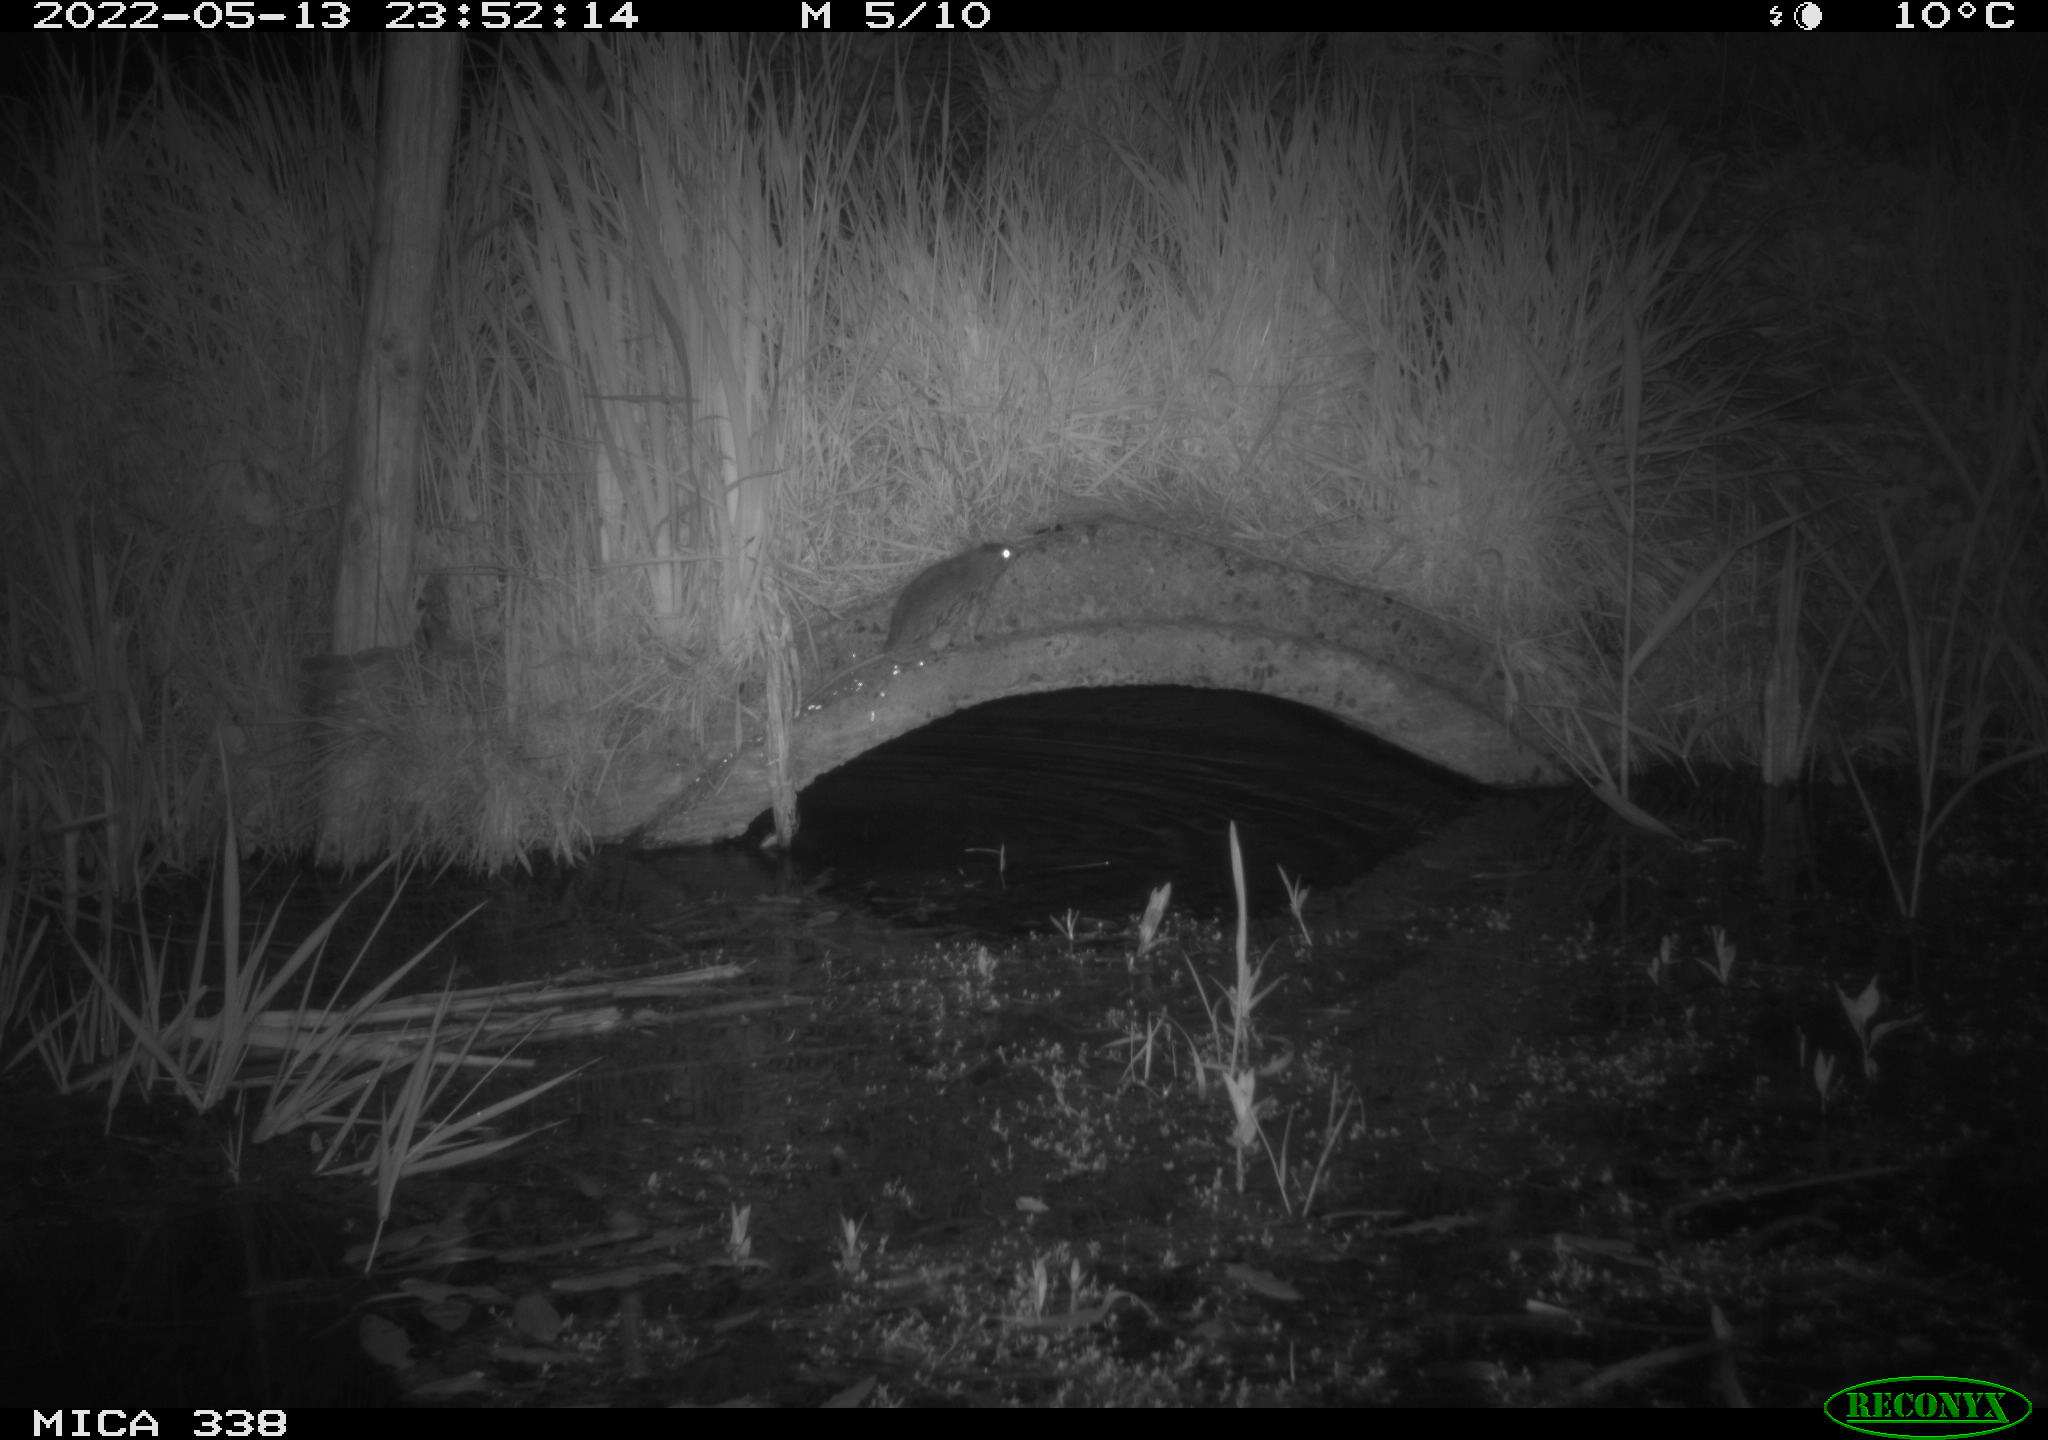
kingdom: Animalia
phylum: Chordata
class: Mammalia
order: Rodentia
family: Muridae
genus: Rattus
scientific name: Rattus norvegicus
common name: Brown rat
